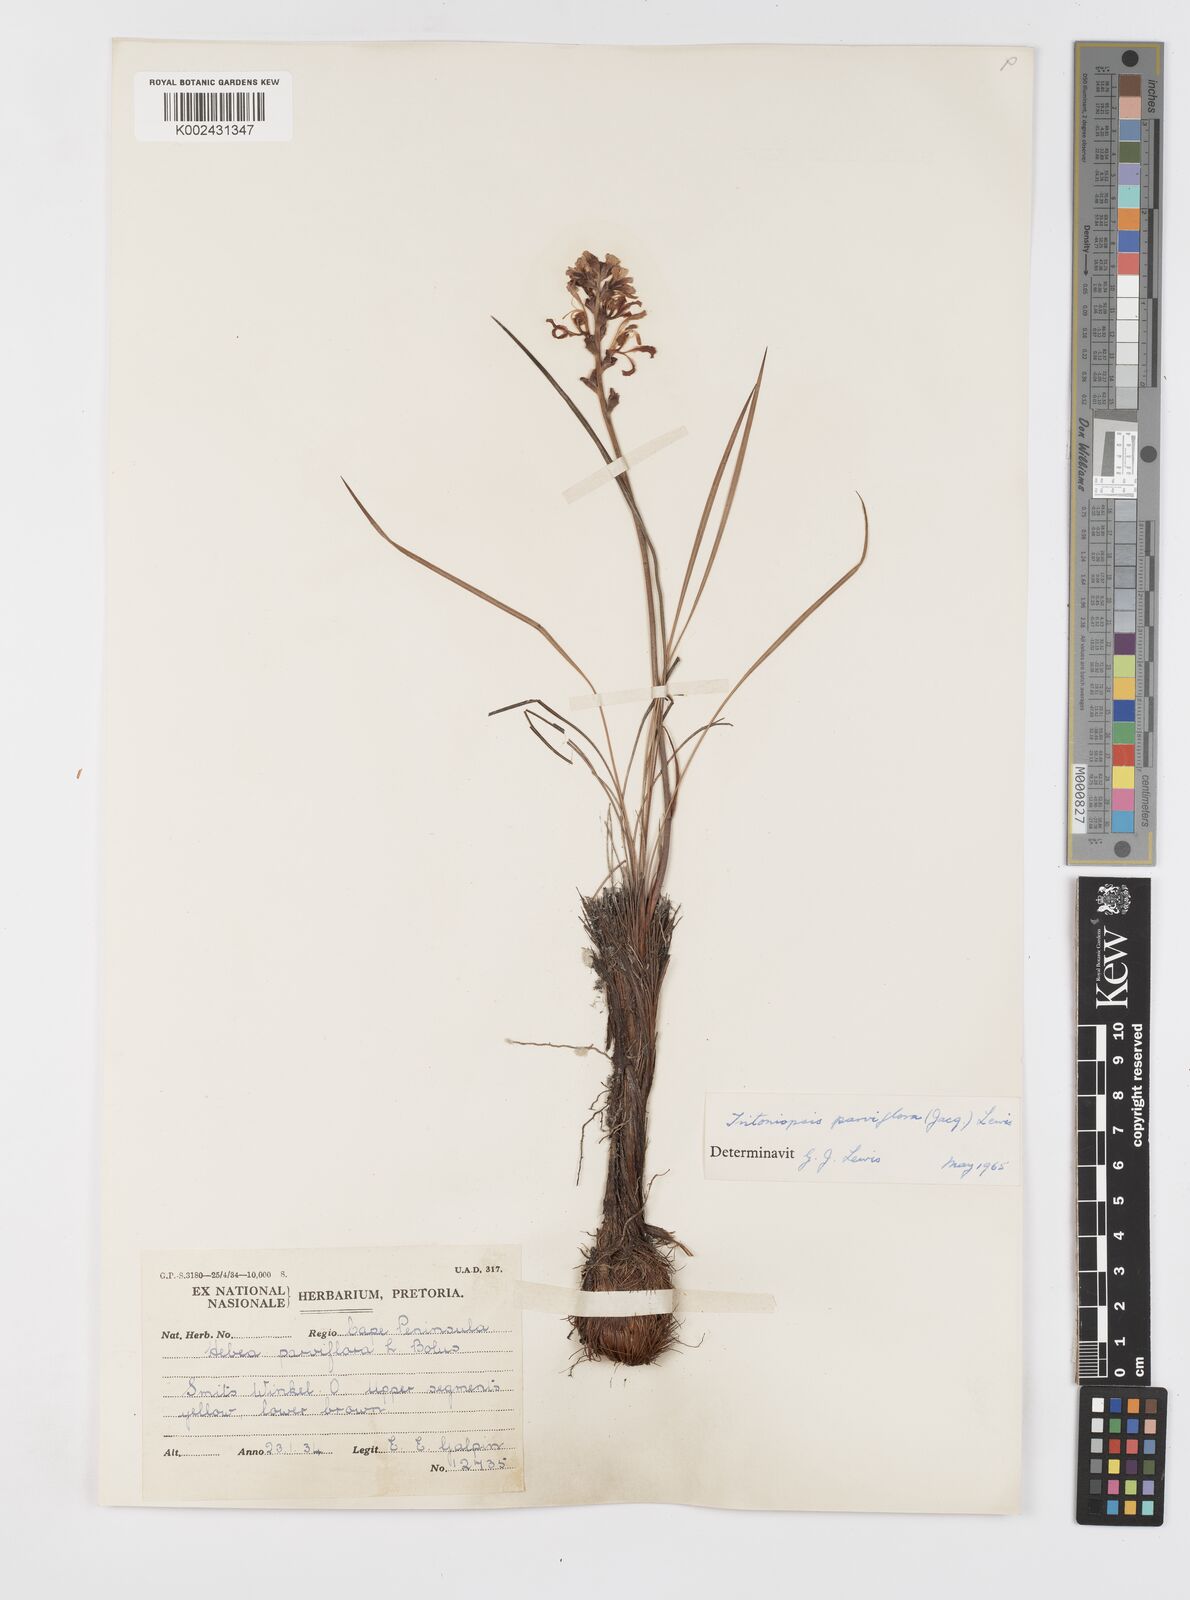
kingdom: Plantae
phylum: Tracheophyta
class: Liliopsida
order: Asparagales
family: Iridaceae
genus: Tritoniopsis
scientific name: Tritoniopsis parviflora
